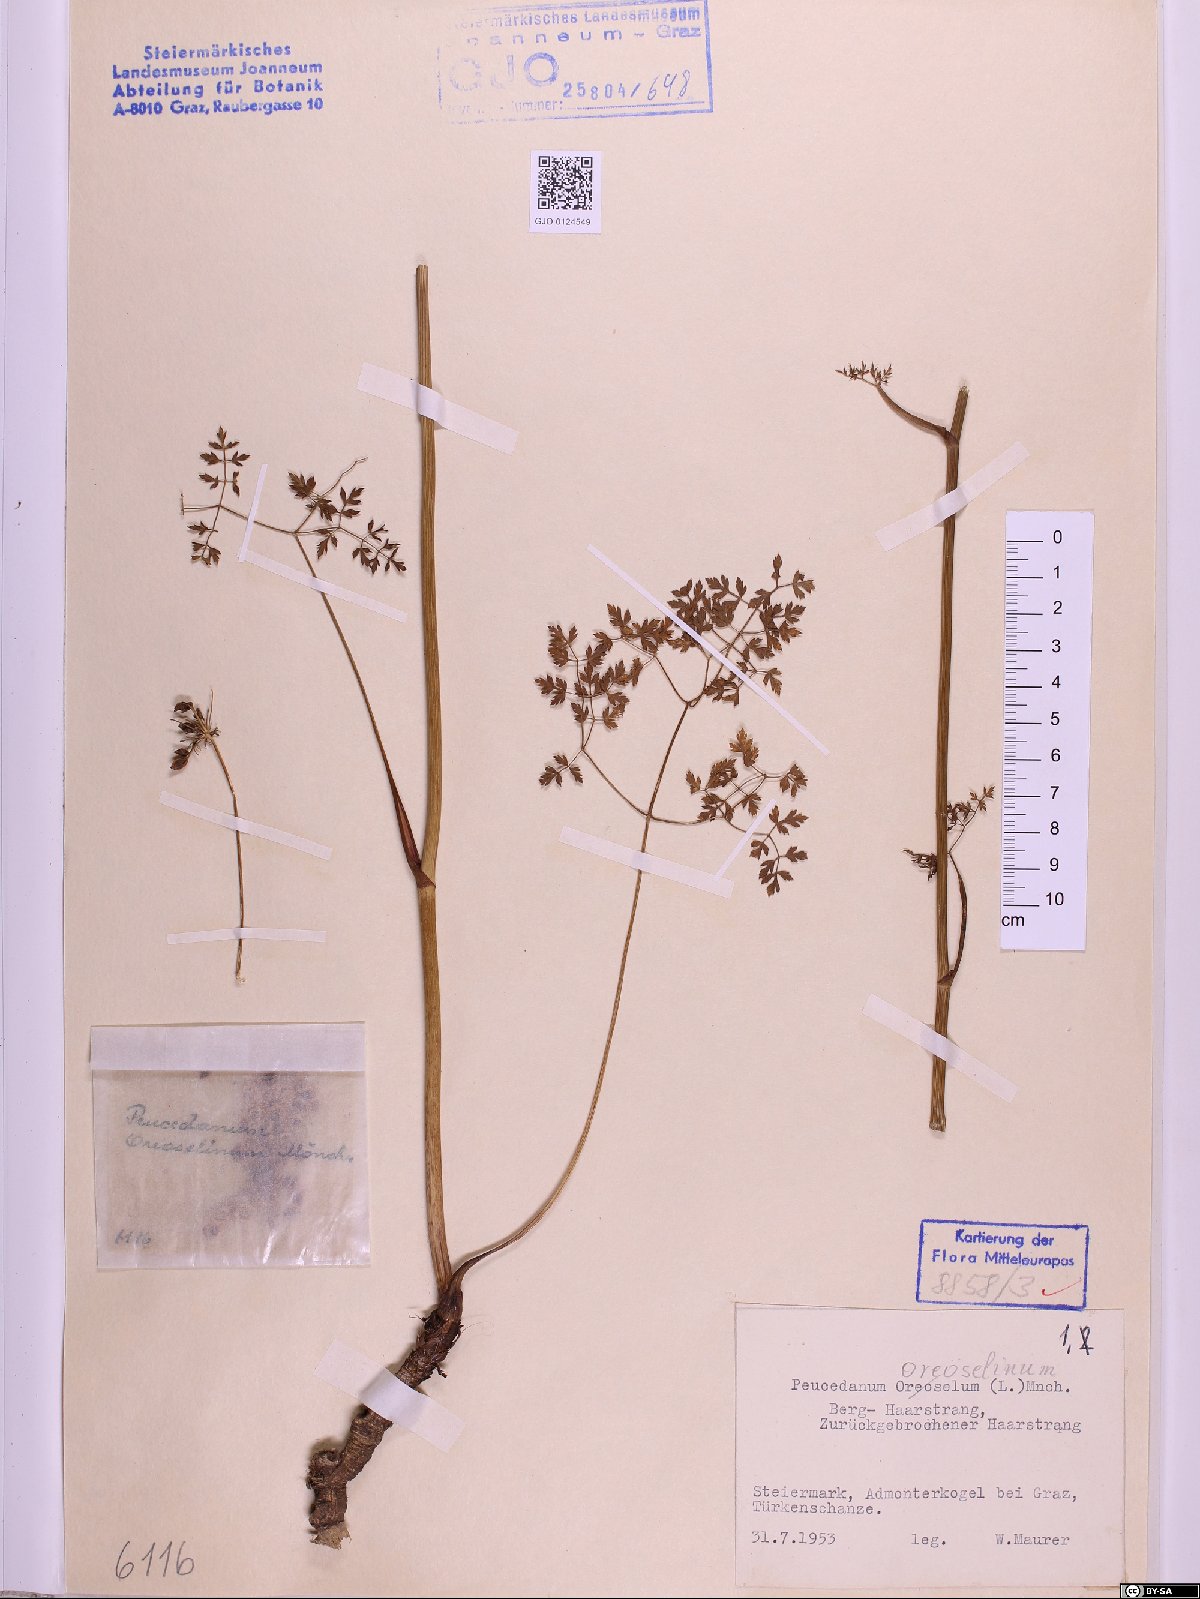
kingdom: Plantae
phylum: Tracheophyta
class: Magnoliopsida
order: Apiales
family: Apiaceae
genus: Oreoselinum
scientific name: Oreoselinum nigrum
